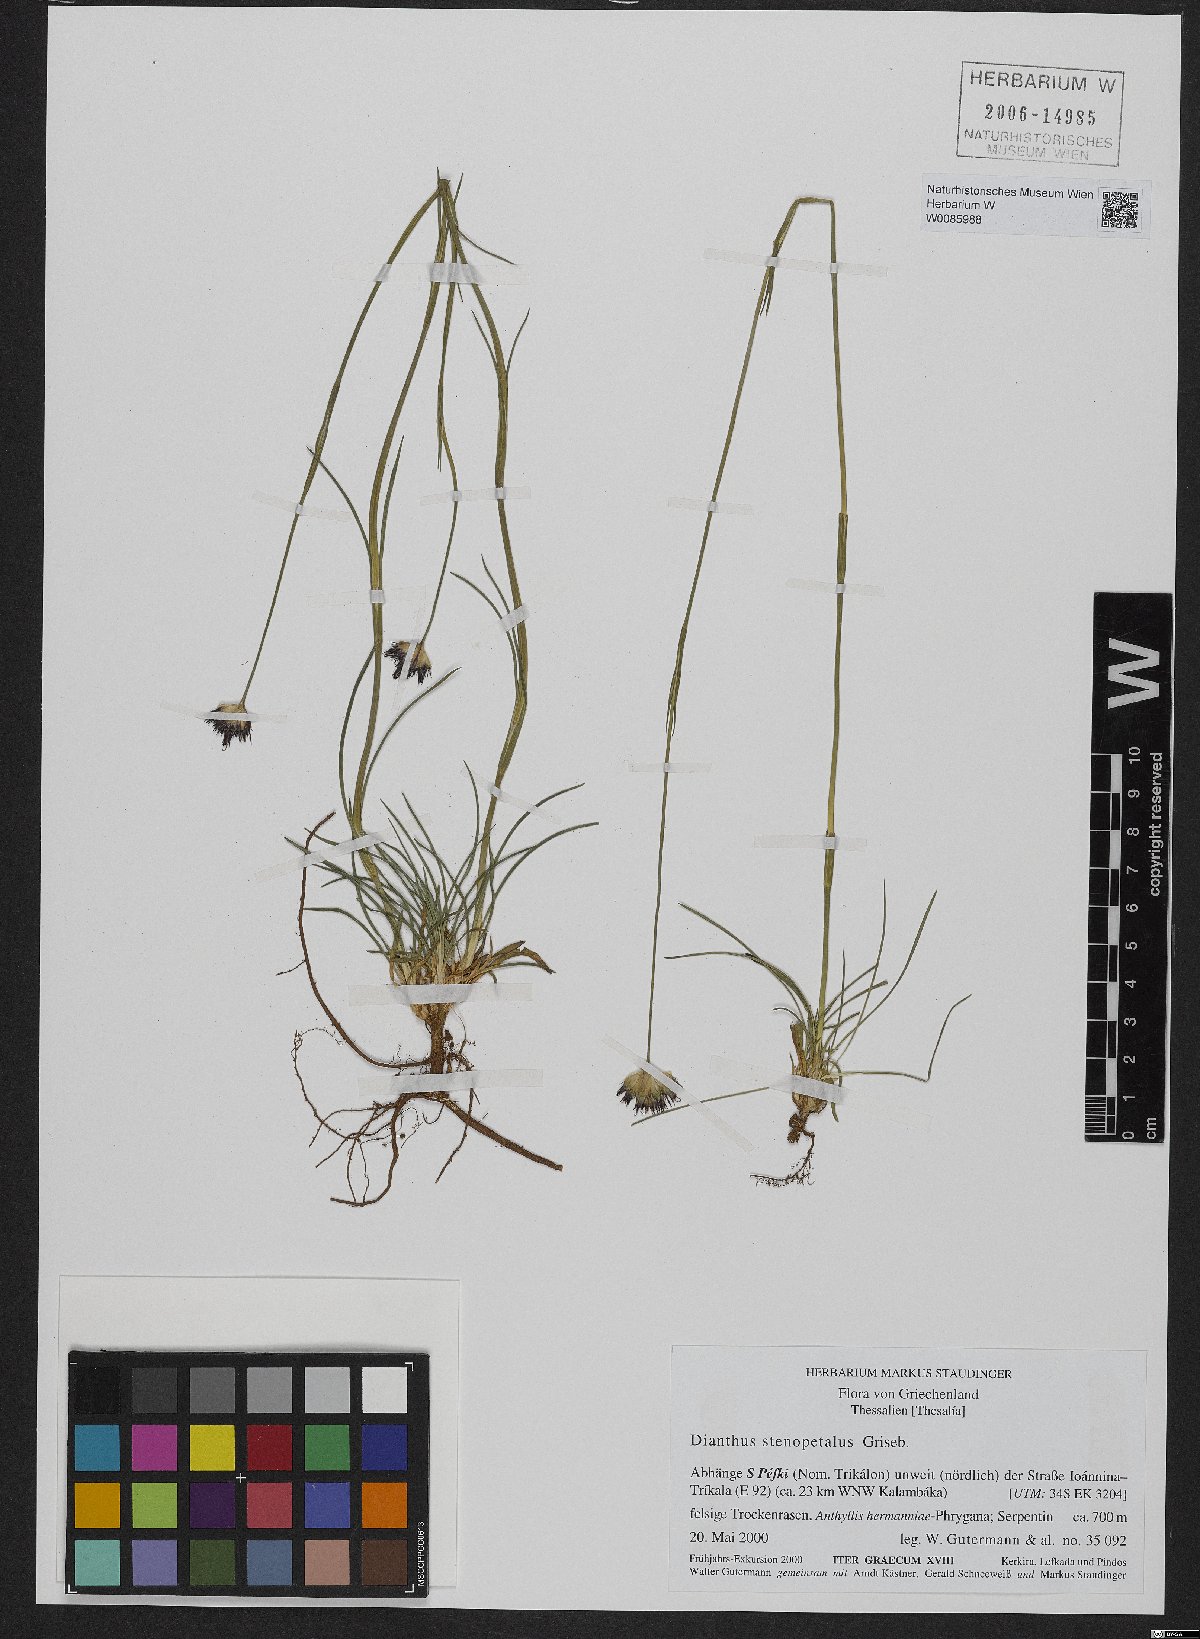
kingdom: Plantae
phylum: Tracheophyta
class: Magnoliopsida
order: Caryophyllales
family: Caryophyllaceae
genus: Dianthus
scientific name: Dianthus stenopetalus
